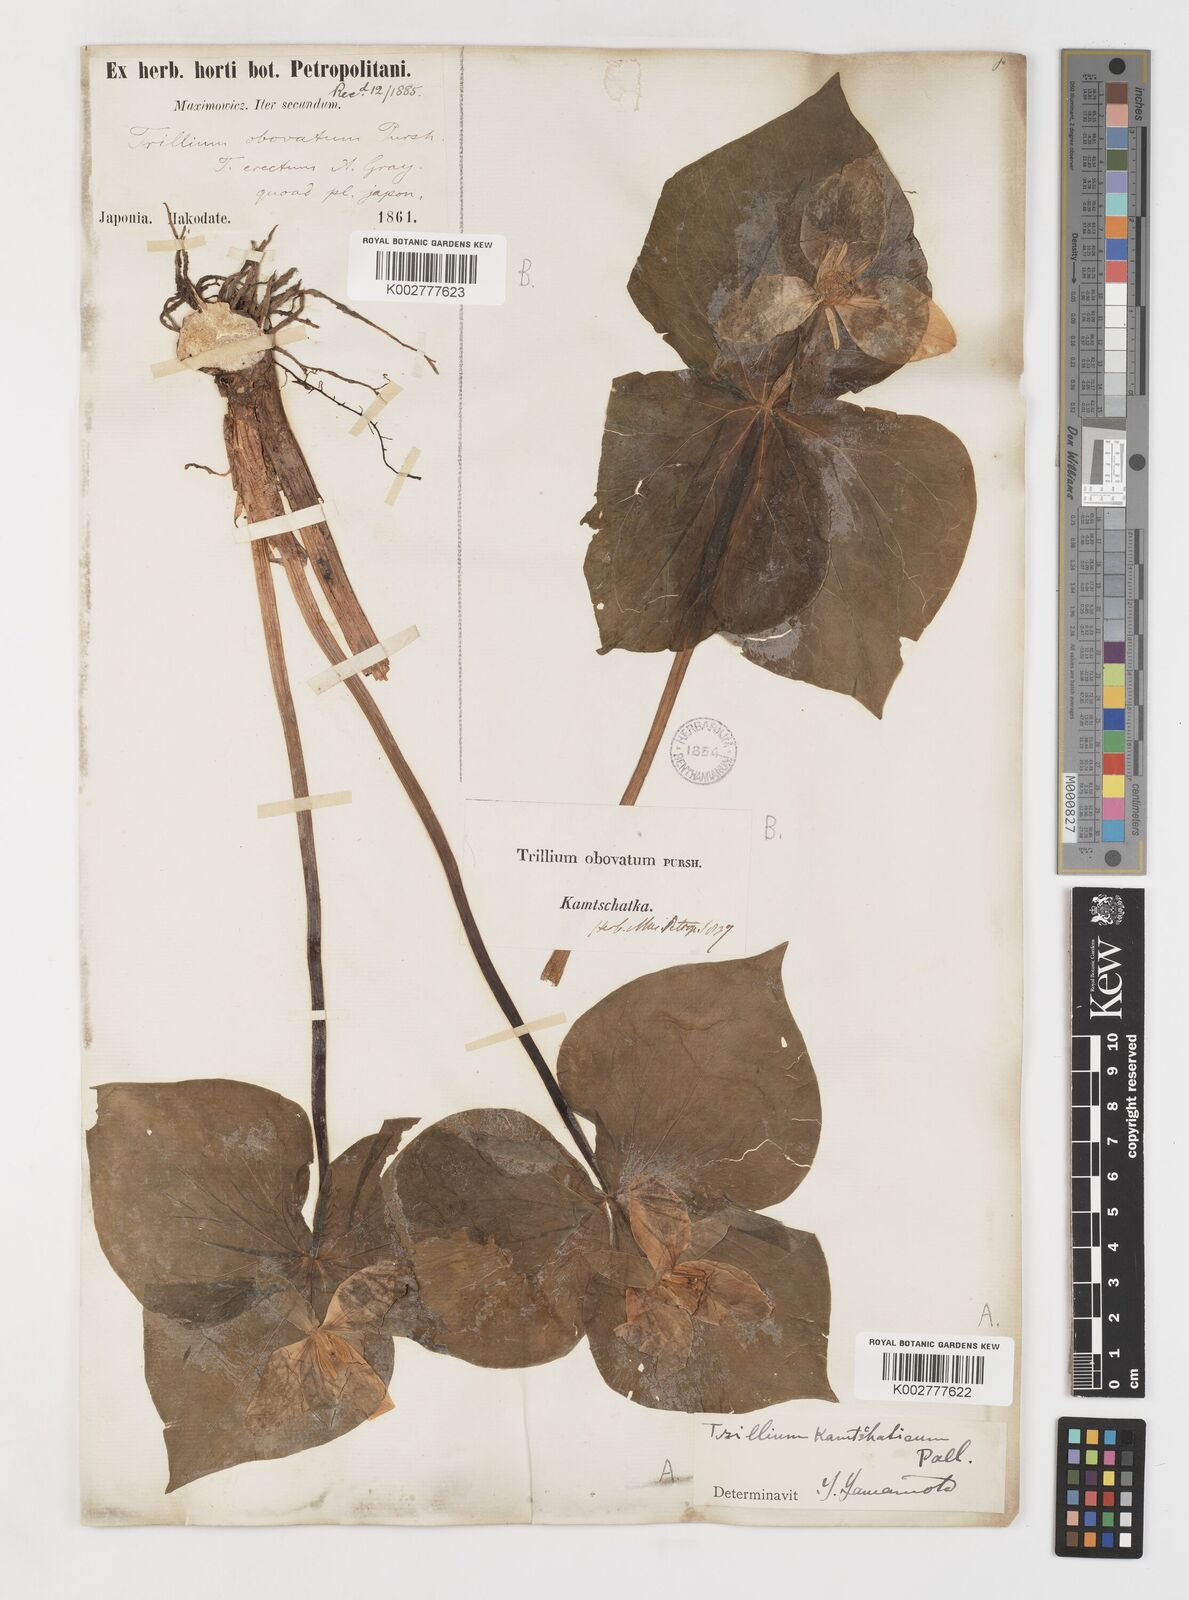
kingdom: Plantae
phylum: Tracheophyta
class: Liliopsida
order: Liliales
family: Melanthiaceae
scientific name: Melanthiaceae
